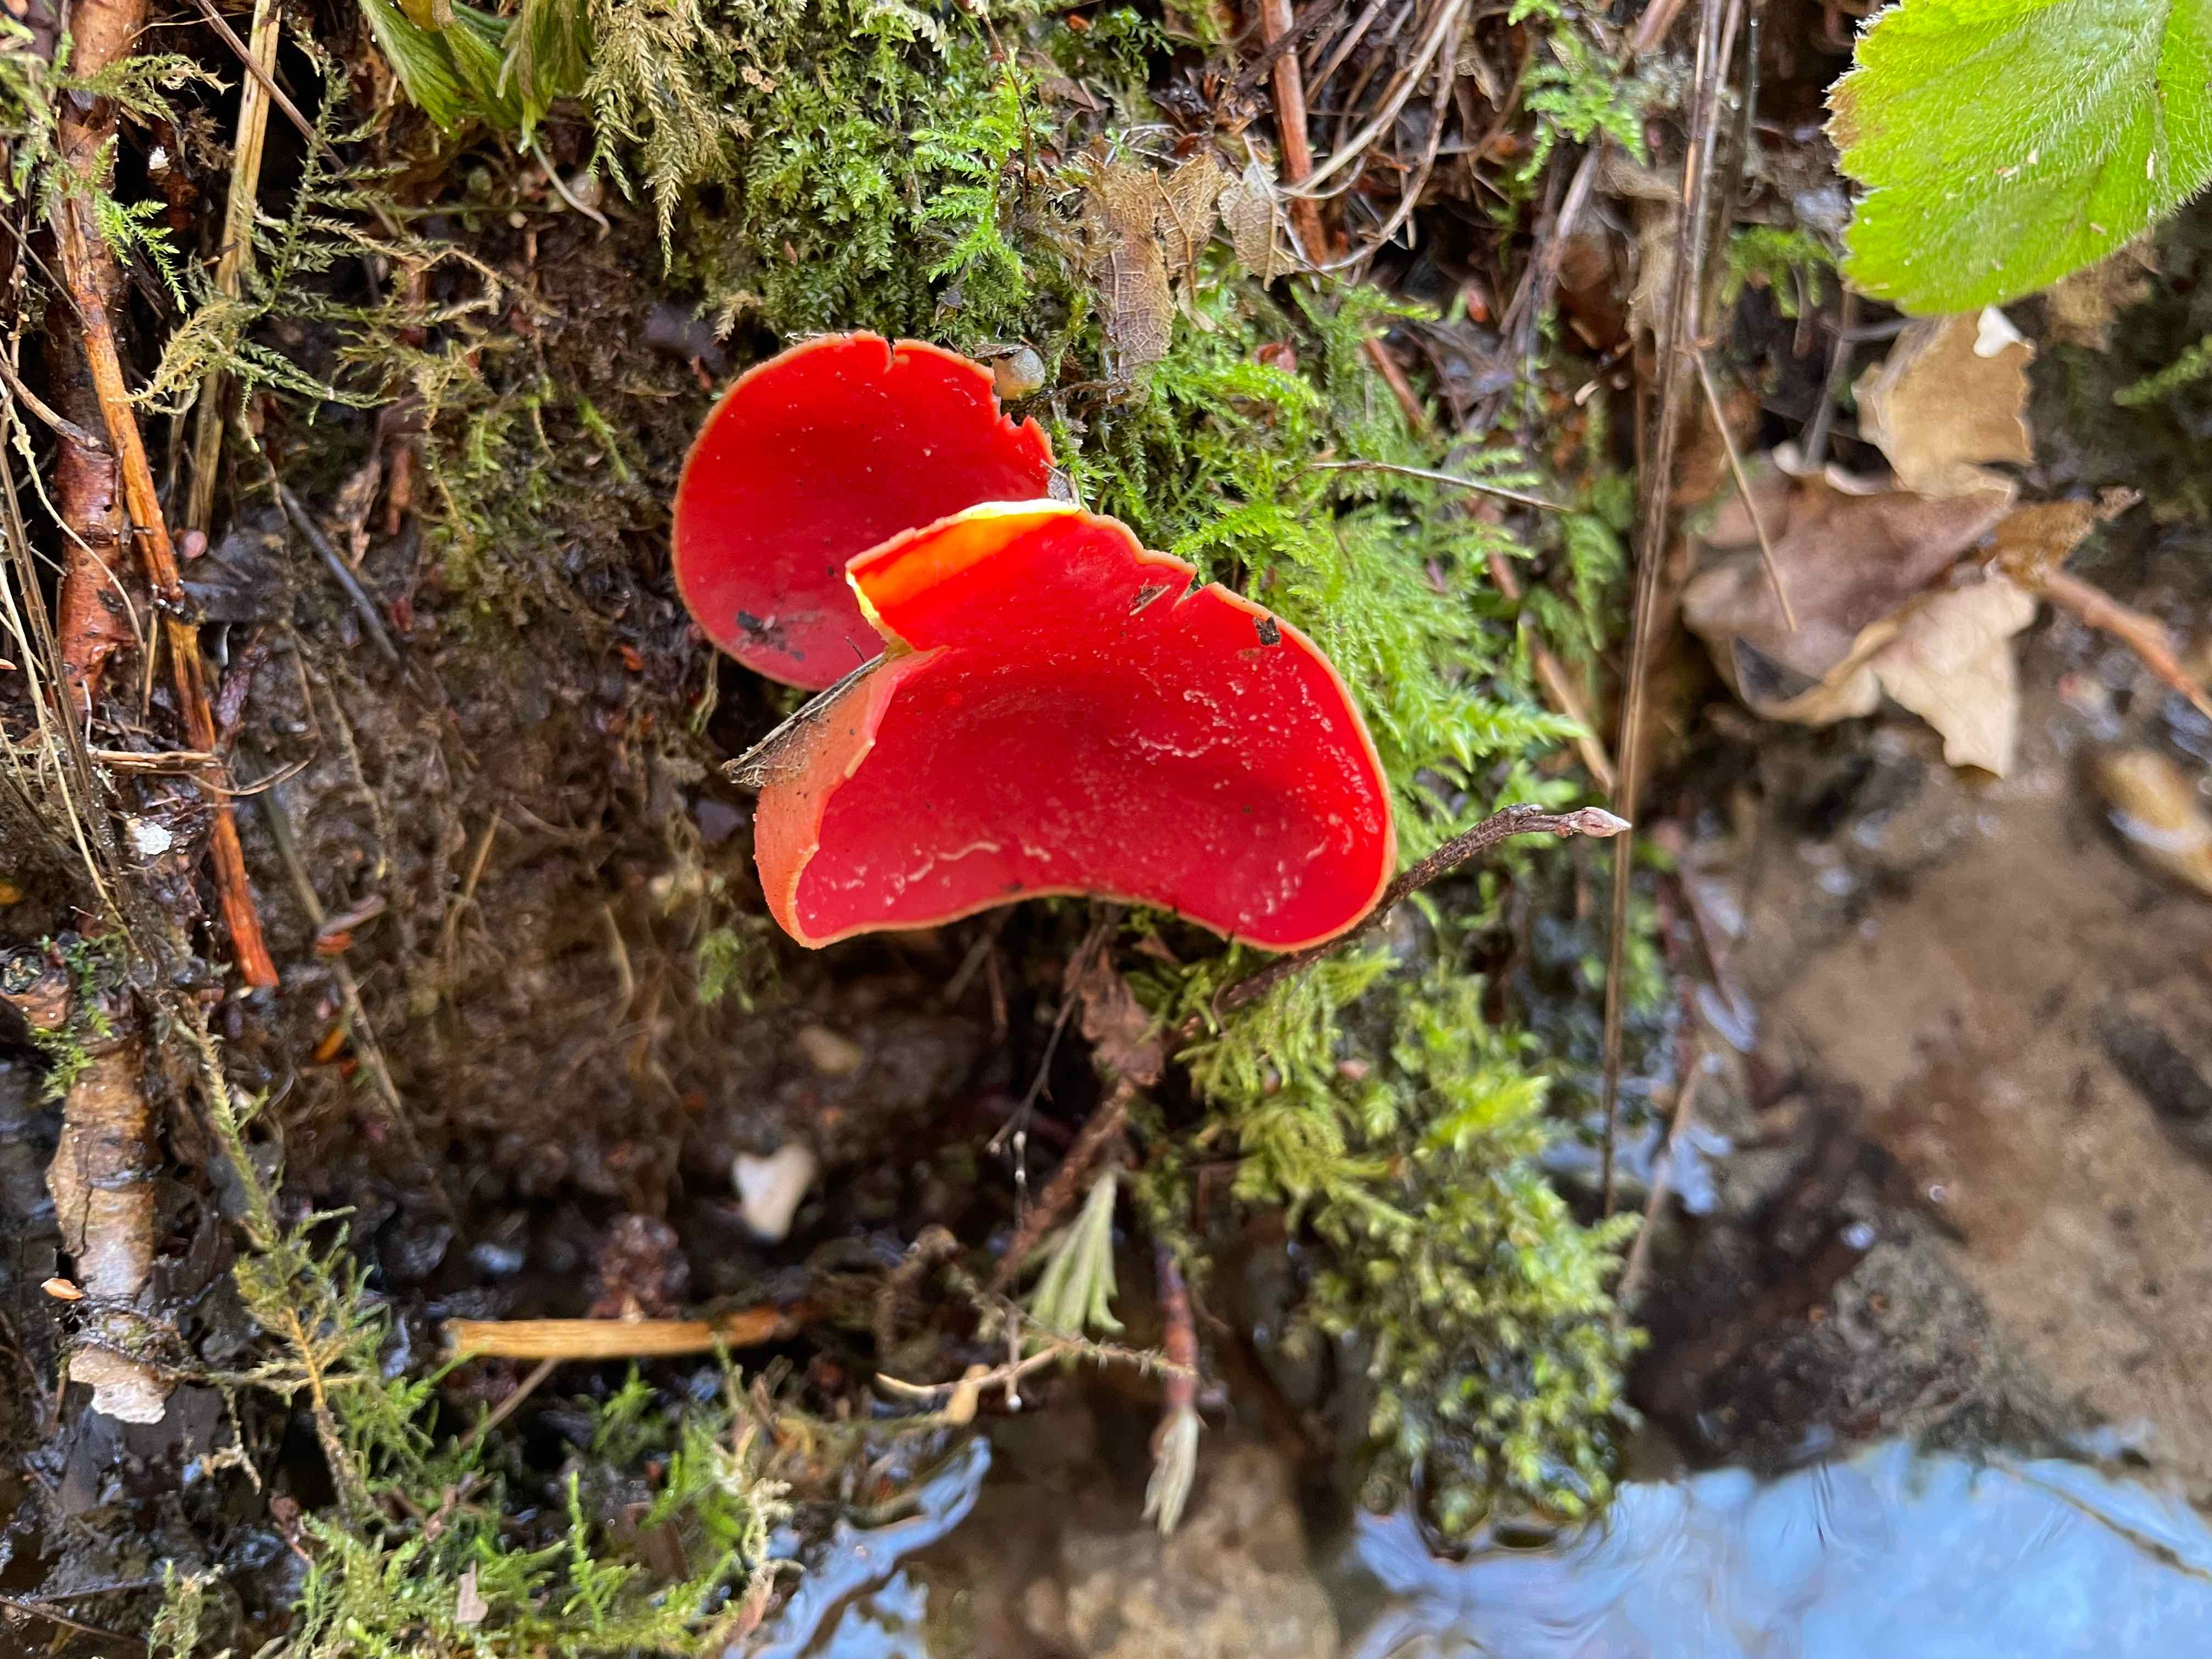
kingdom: Fungi
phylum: Ascomycota
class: Pezizomycetes
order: Pezizales
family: Sarcoscyphaceae
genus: Sarcoscypha
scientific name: Sarcoscypha austriaca
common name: krølhåret pragtbæger
